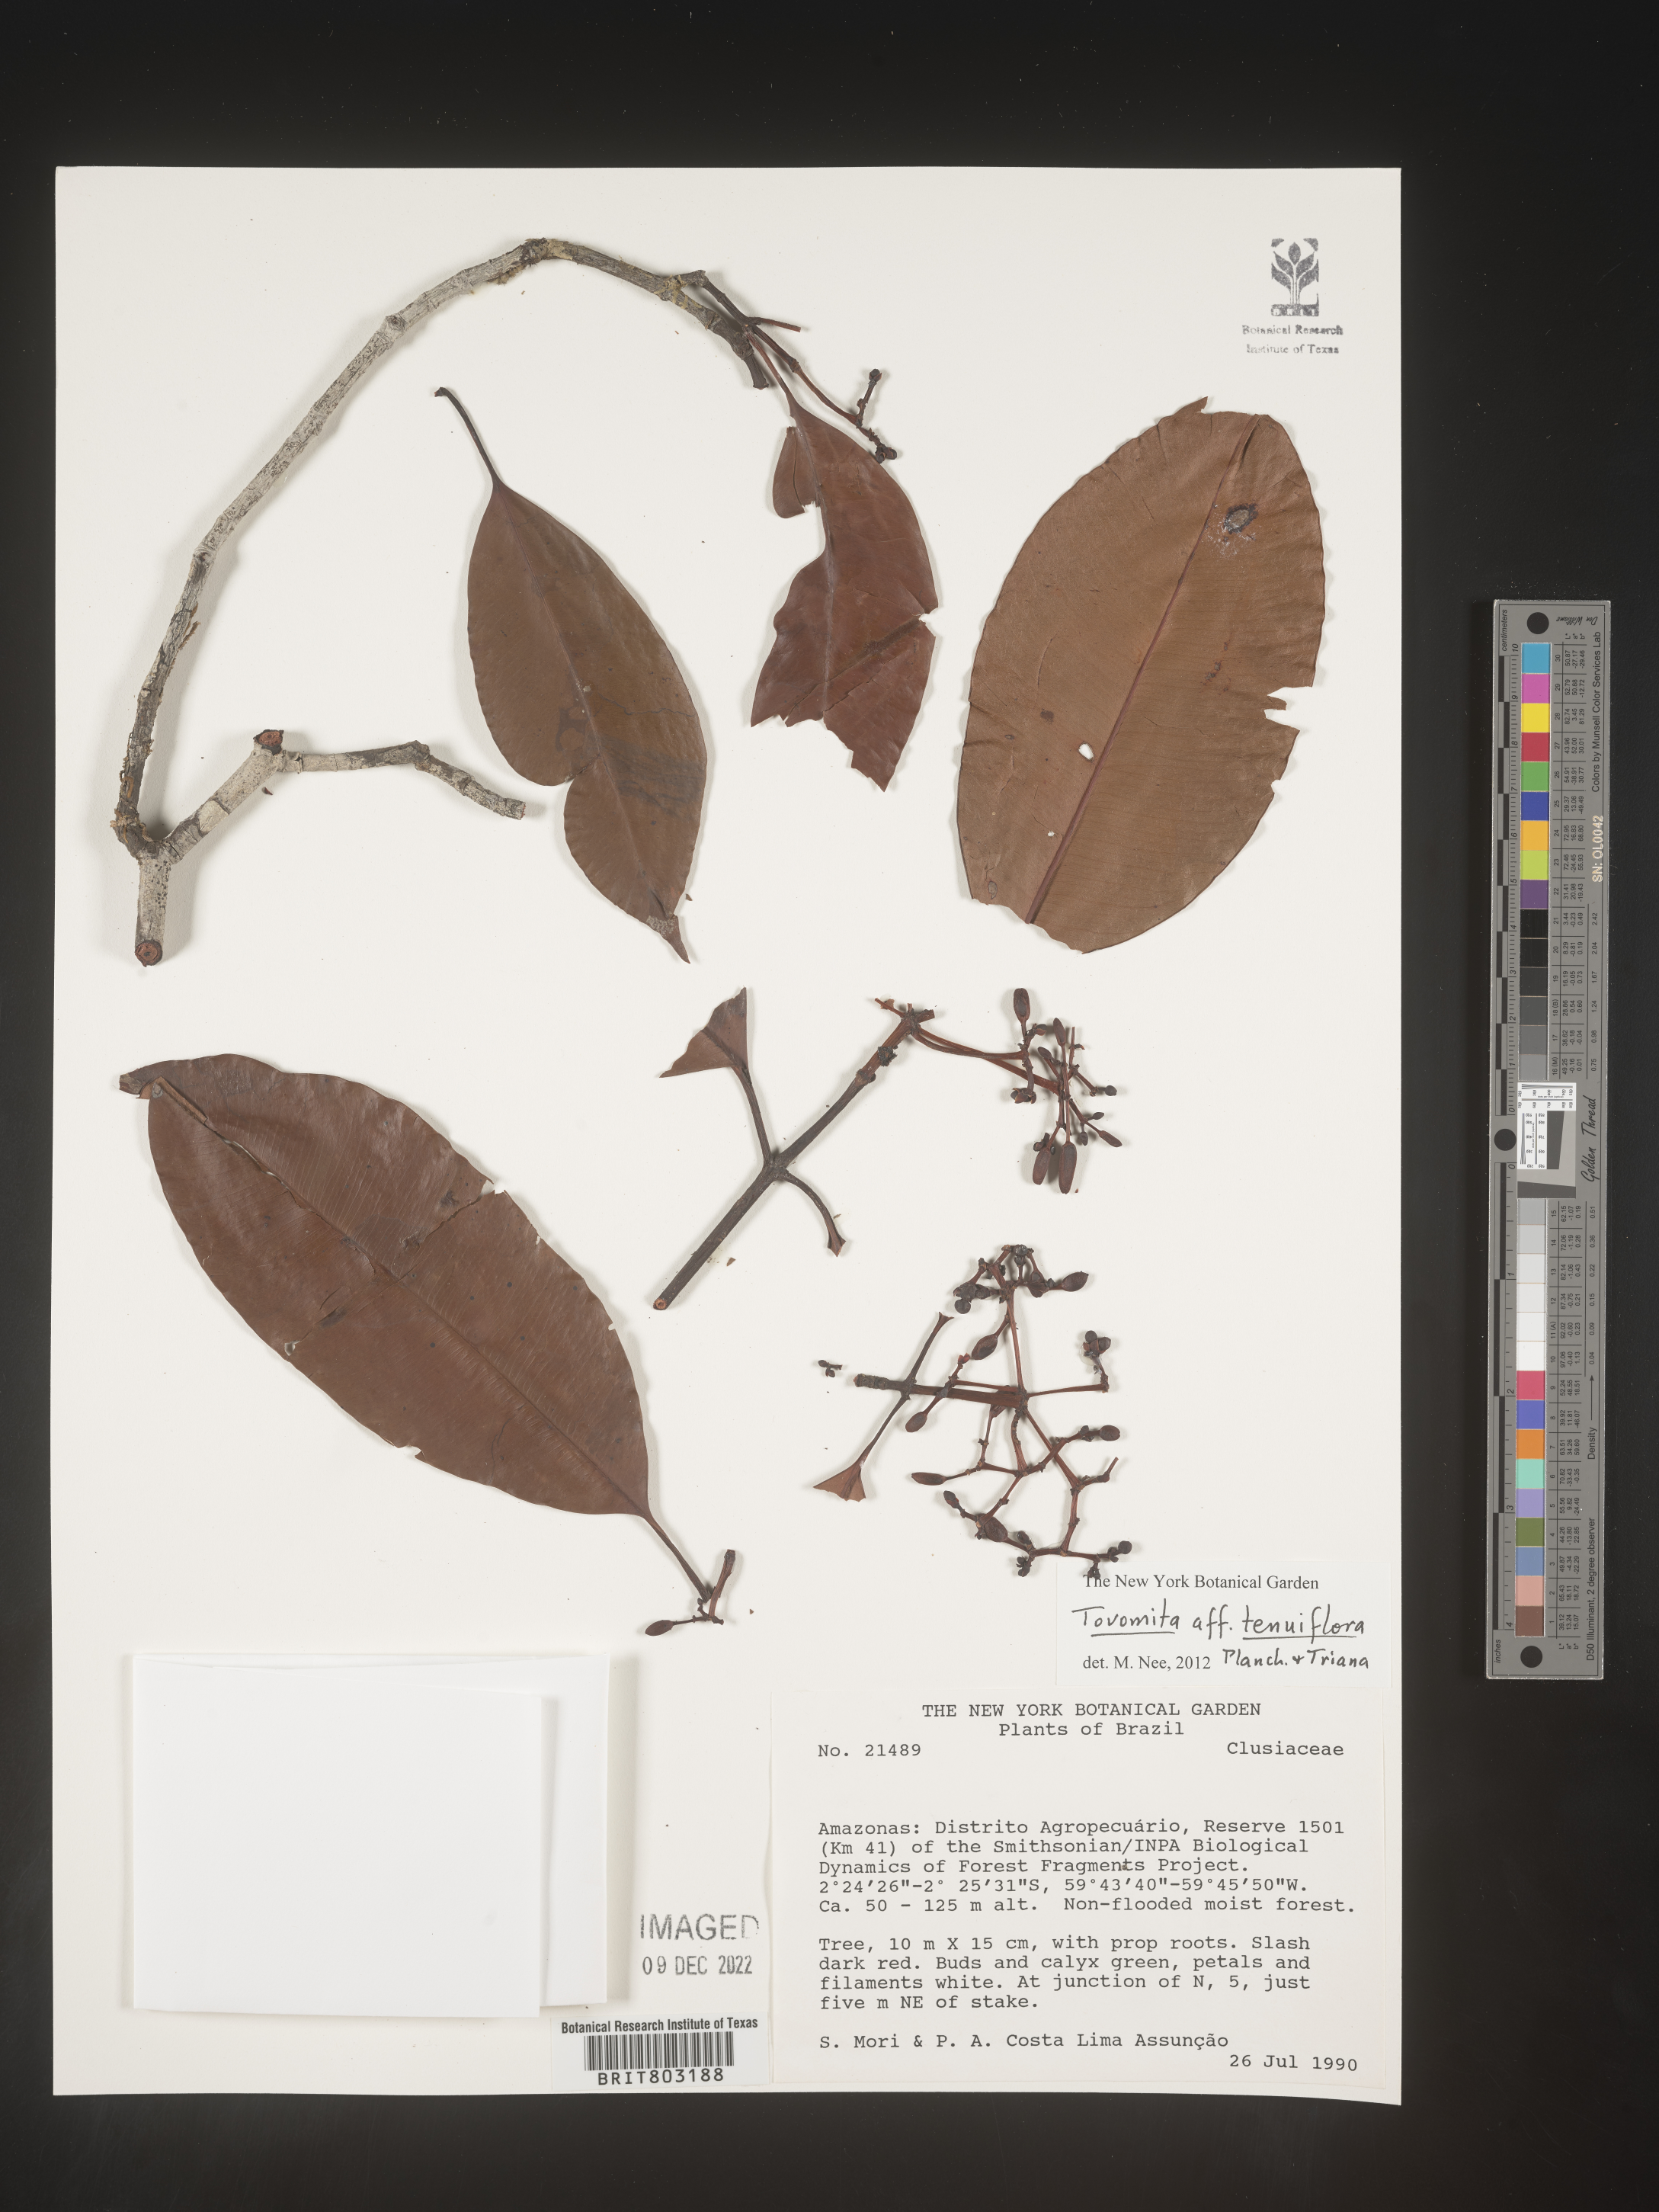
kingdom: Plantae
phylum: Tracheophyta
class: Magnoliopsida
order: Malpighiales
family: Clusiaceae
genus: Tovomita
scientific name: Tovomita
